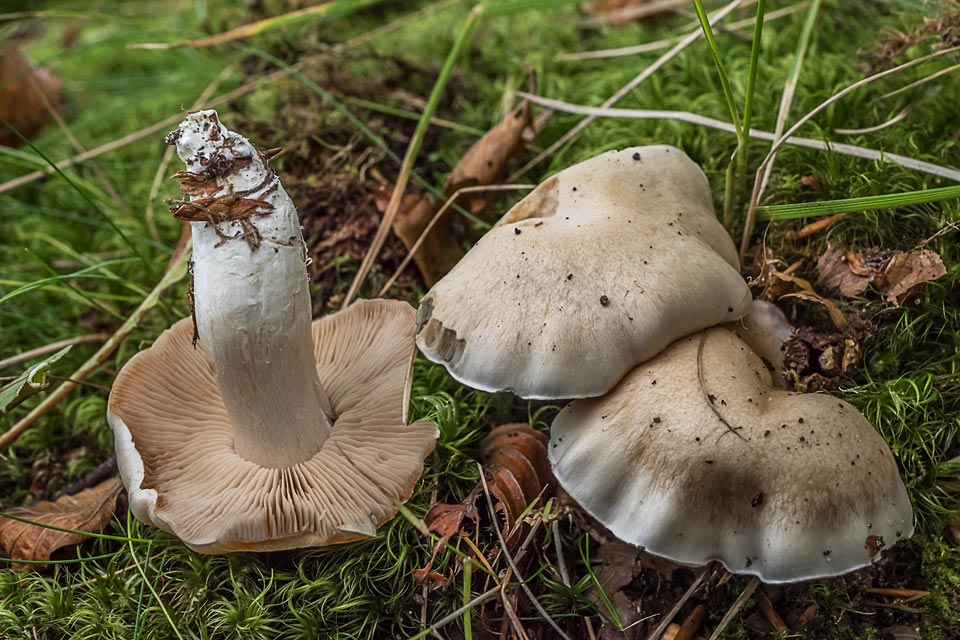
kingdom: Fungi
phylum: Basidiomycota
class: Agaricomycetes
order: Agaricales
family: Cortinariaceae
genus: Thaxterogaster
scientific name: Thaxterogaster barbatus
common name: elfenbens-slørhat
